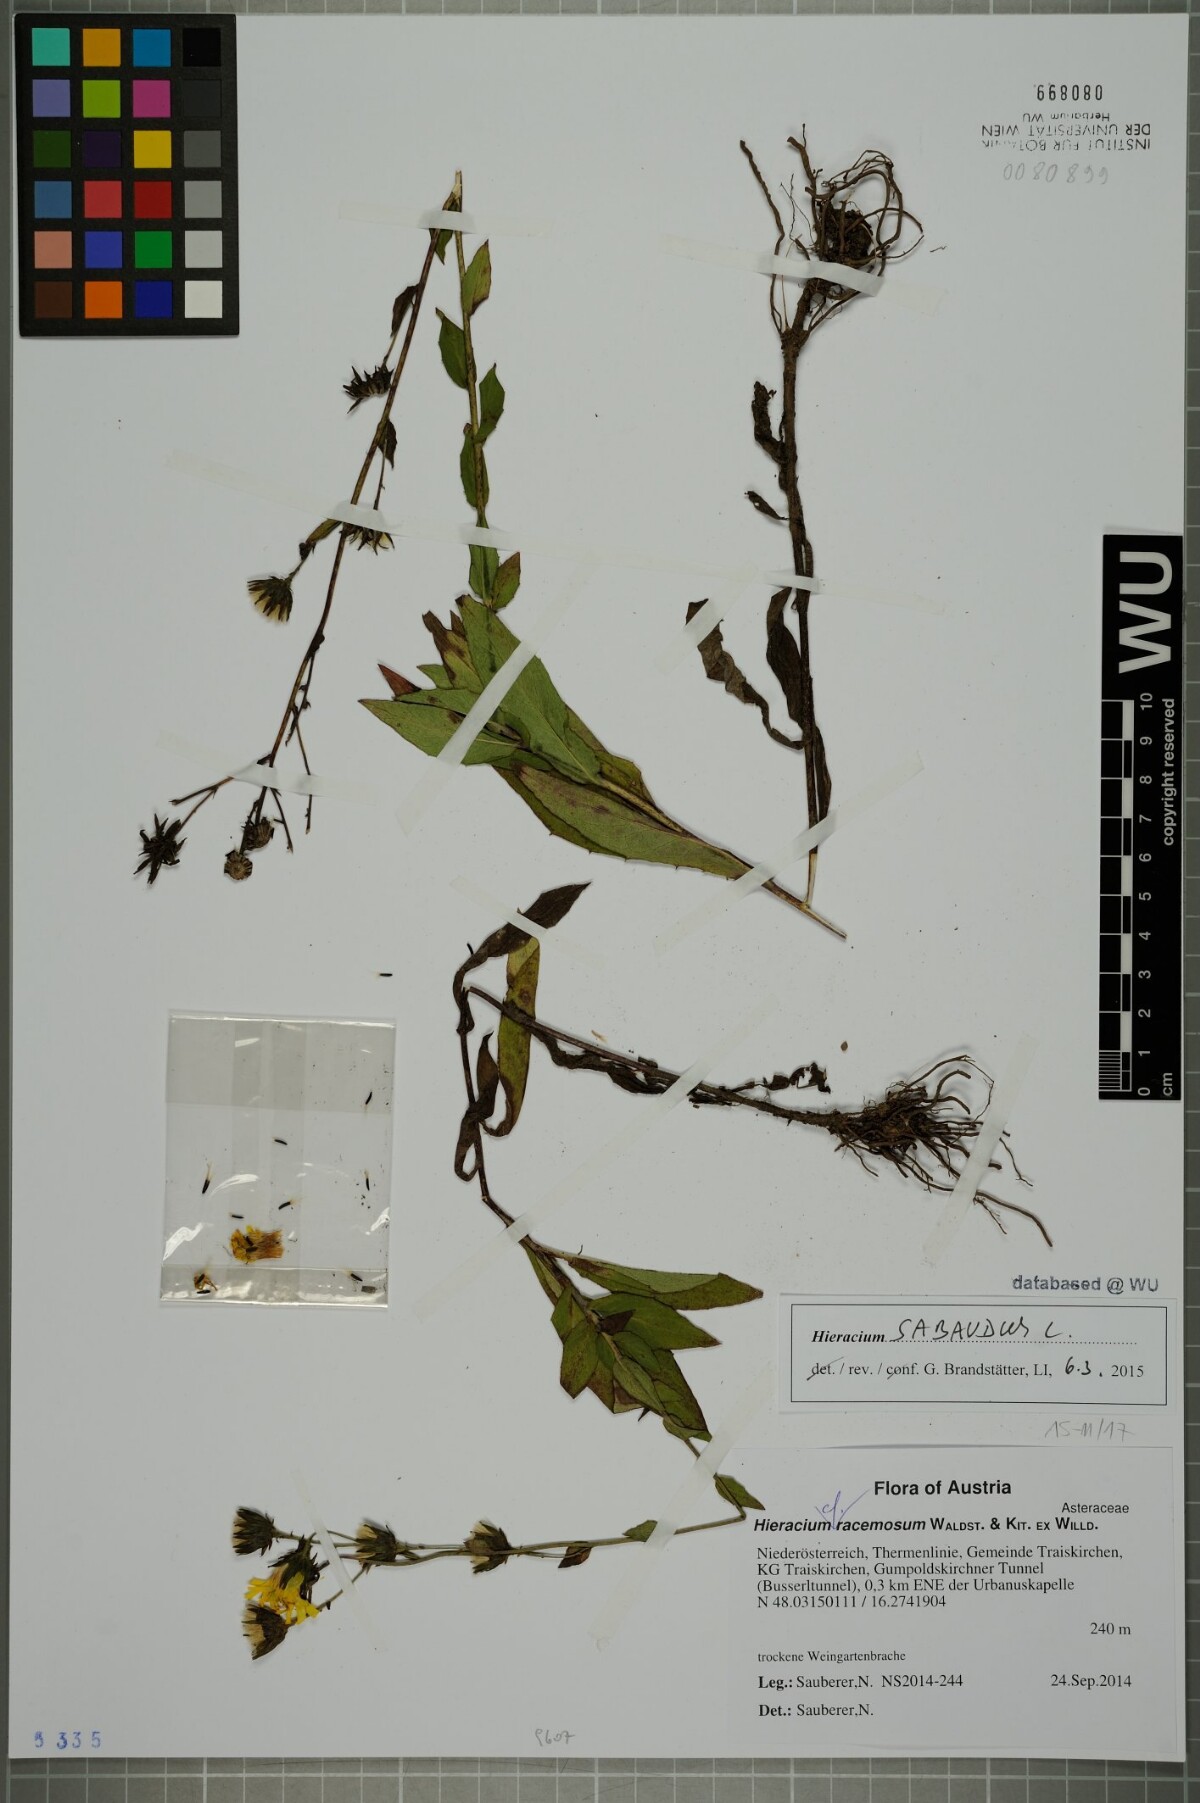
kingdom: Plantae
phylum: Tracheophyta
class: Magnoliopsida
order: Asterales
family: Asteraceae
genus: Hieracium
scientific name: Hieracium sabaudum
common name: New england hawkweed
